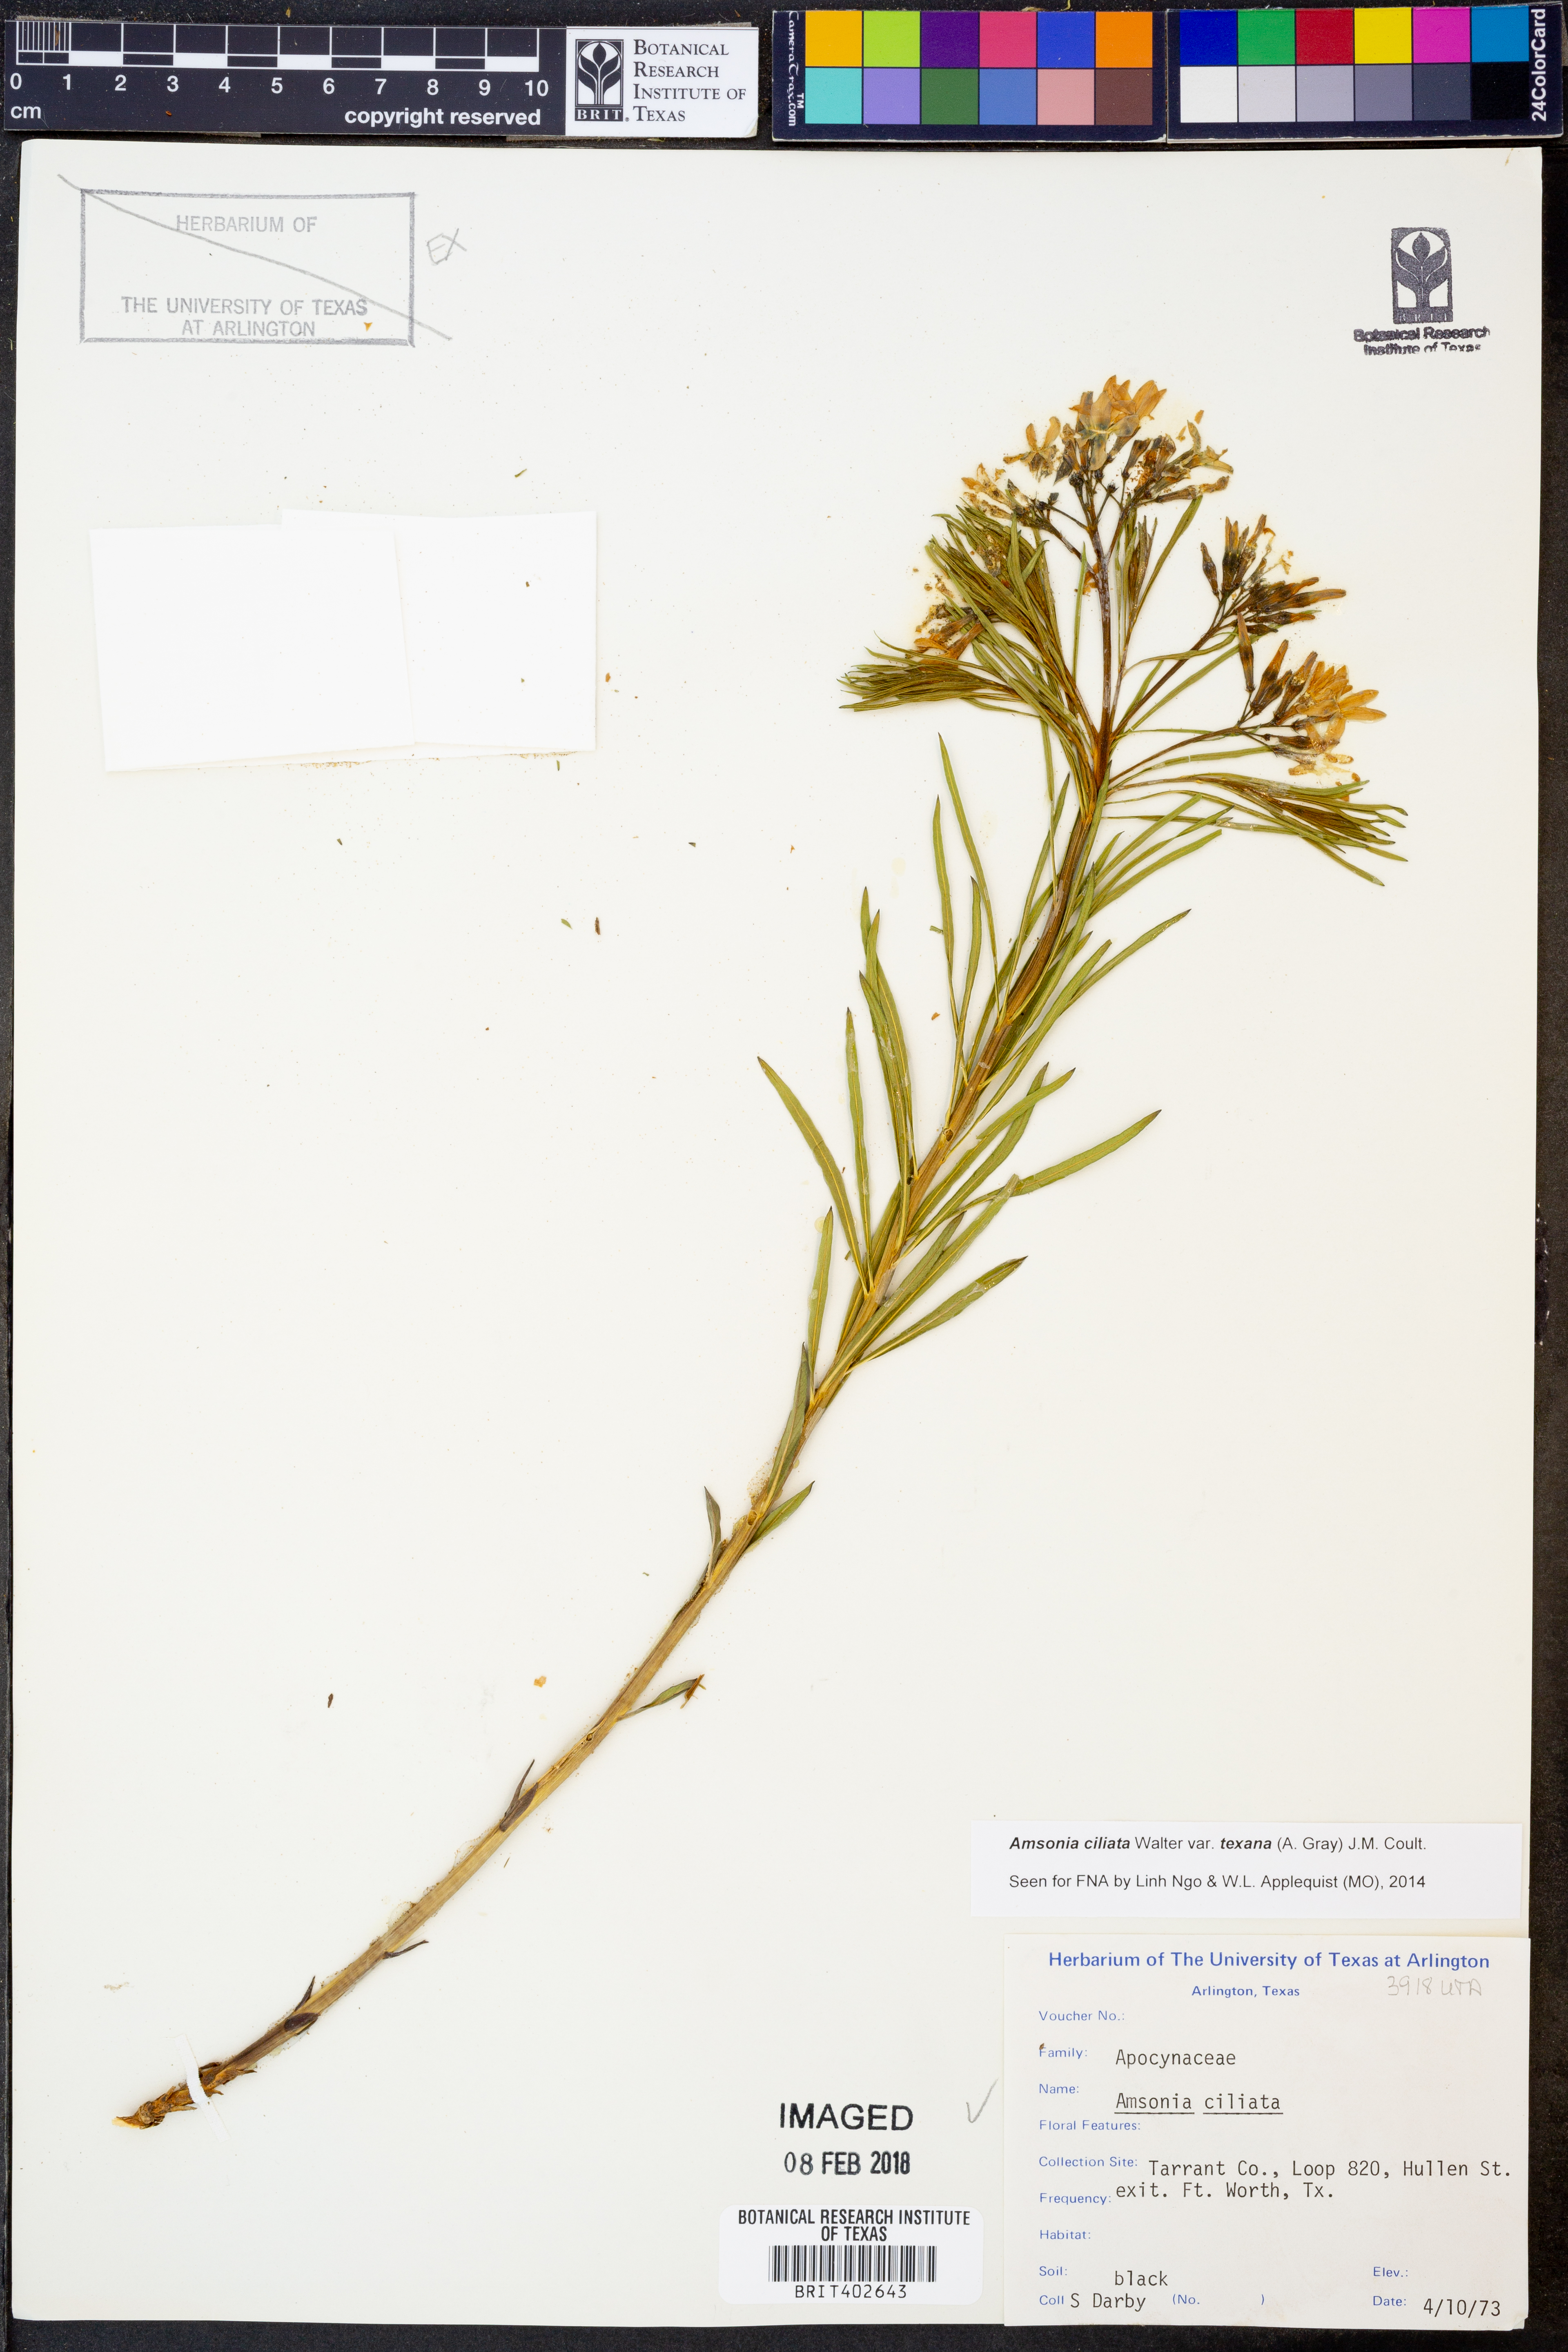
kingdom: Plantae
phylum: Tracheophyta
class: Magnoliopsida
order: Gentianales
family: Apocynaceae
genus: Amsonia
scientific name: Amsonia ciliata
